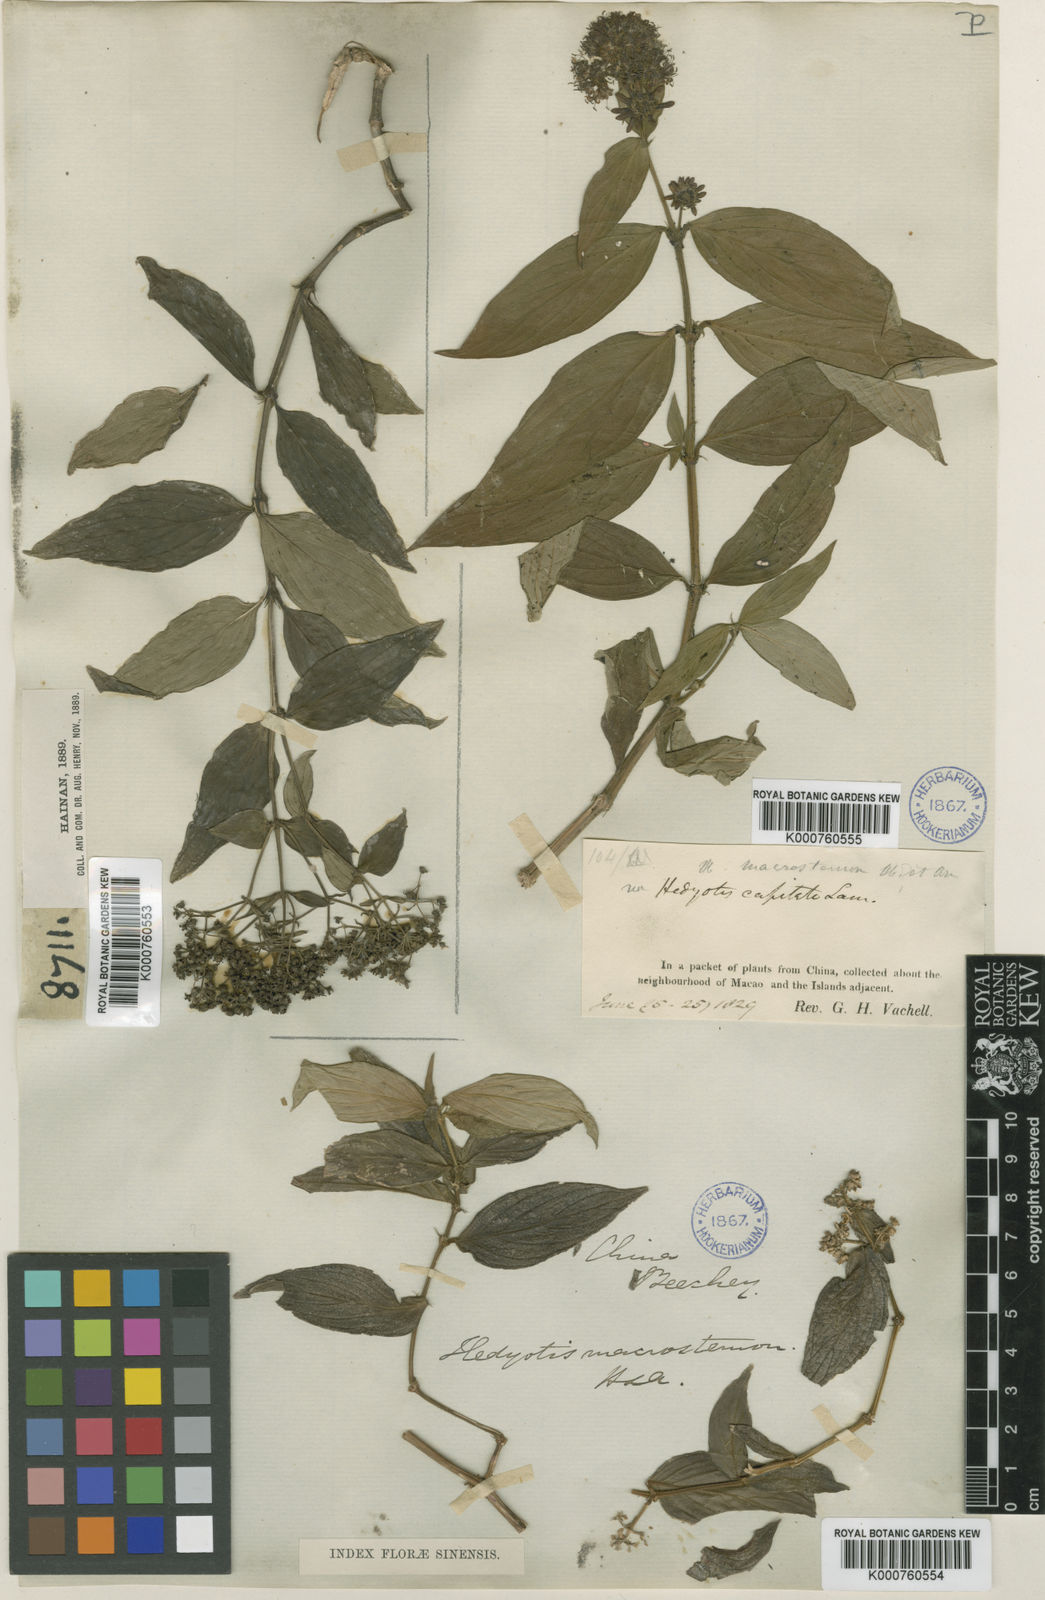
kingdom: Plantae
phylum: Tracheophyta
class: Magnoliopsida
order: Gentianales
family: Rubiaceae
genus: Dimetia
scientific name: Dimetia hedyotidea
